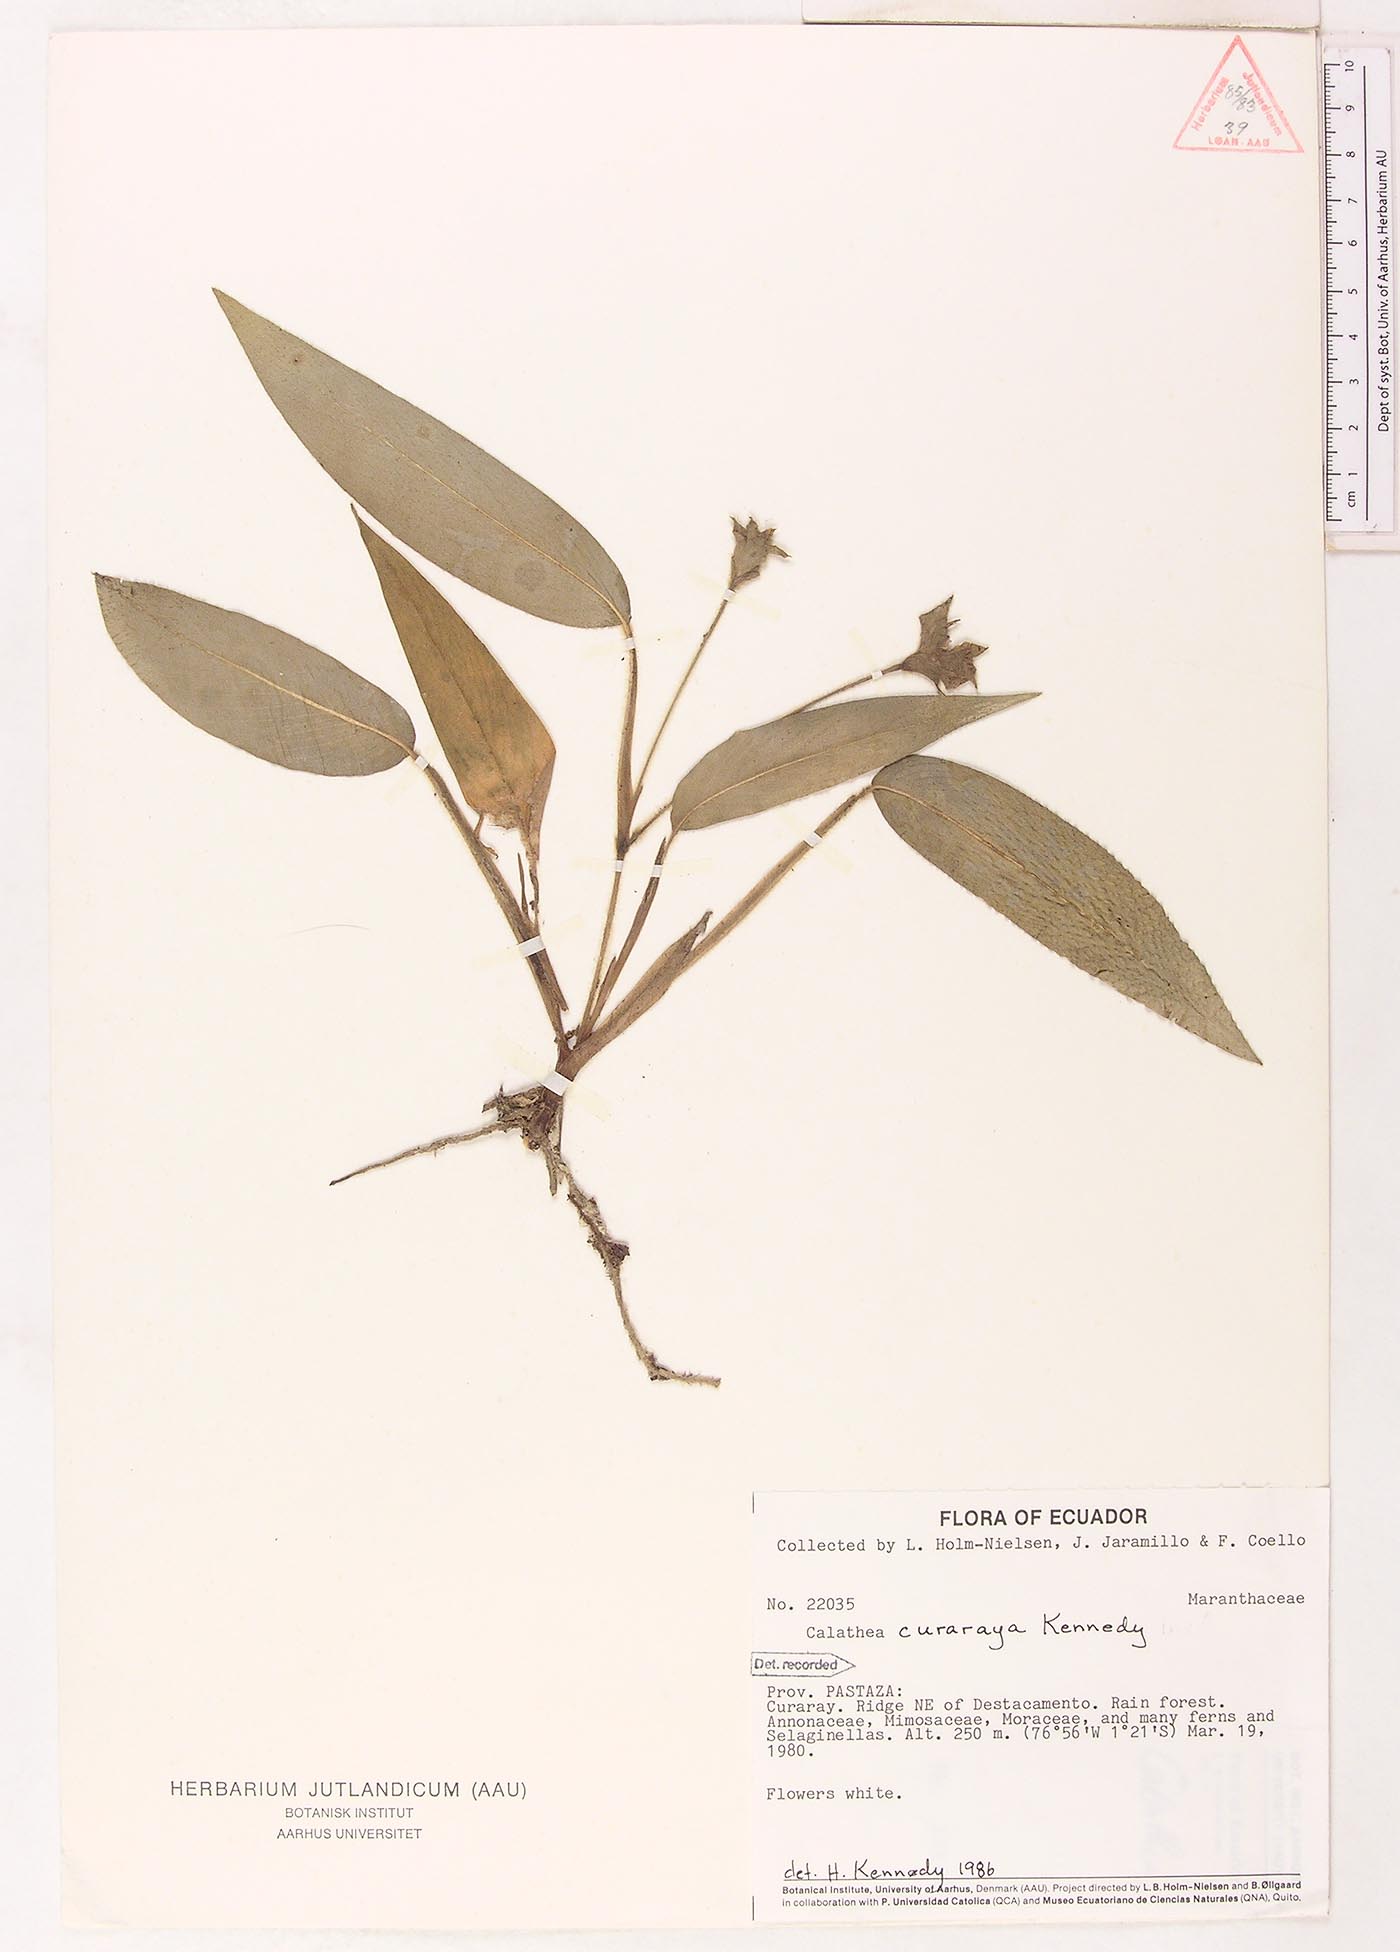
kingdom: Plantae
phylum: Tracheophyta
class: Liliopsida
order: Zingiberales
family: Marantaceae
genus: Goeppertia
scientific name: Goeppertia curaraya
